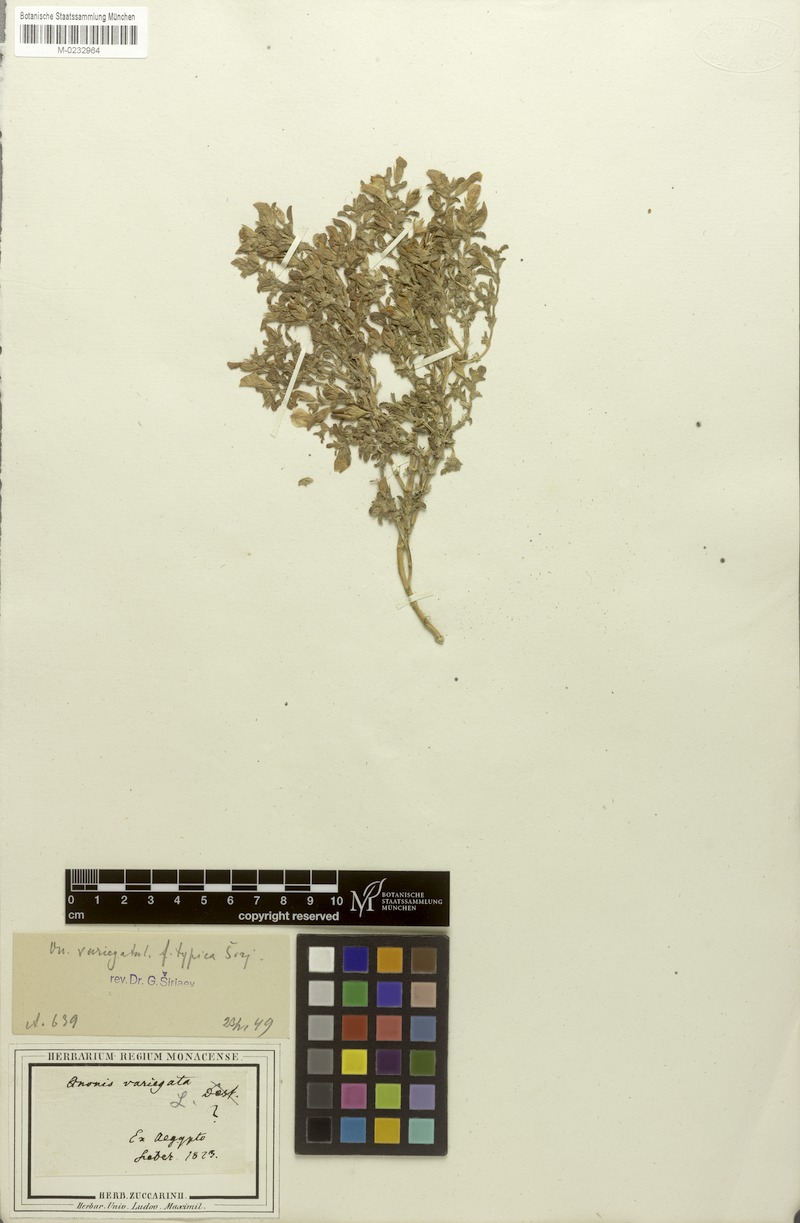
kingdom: Plantae
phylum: Tracheophyta
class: Magnoliopsida
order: Fabales
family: Fabaceae
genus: Ononis
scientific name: Ononis variegata
